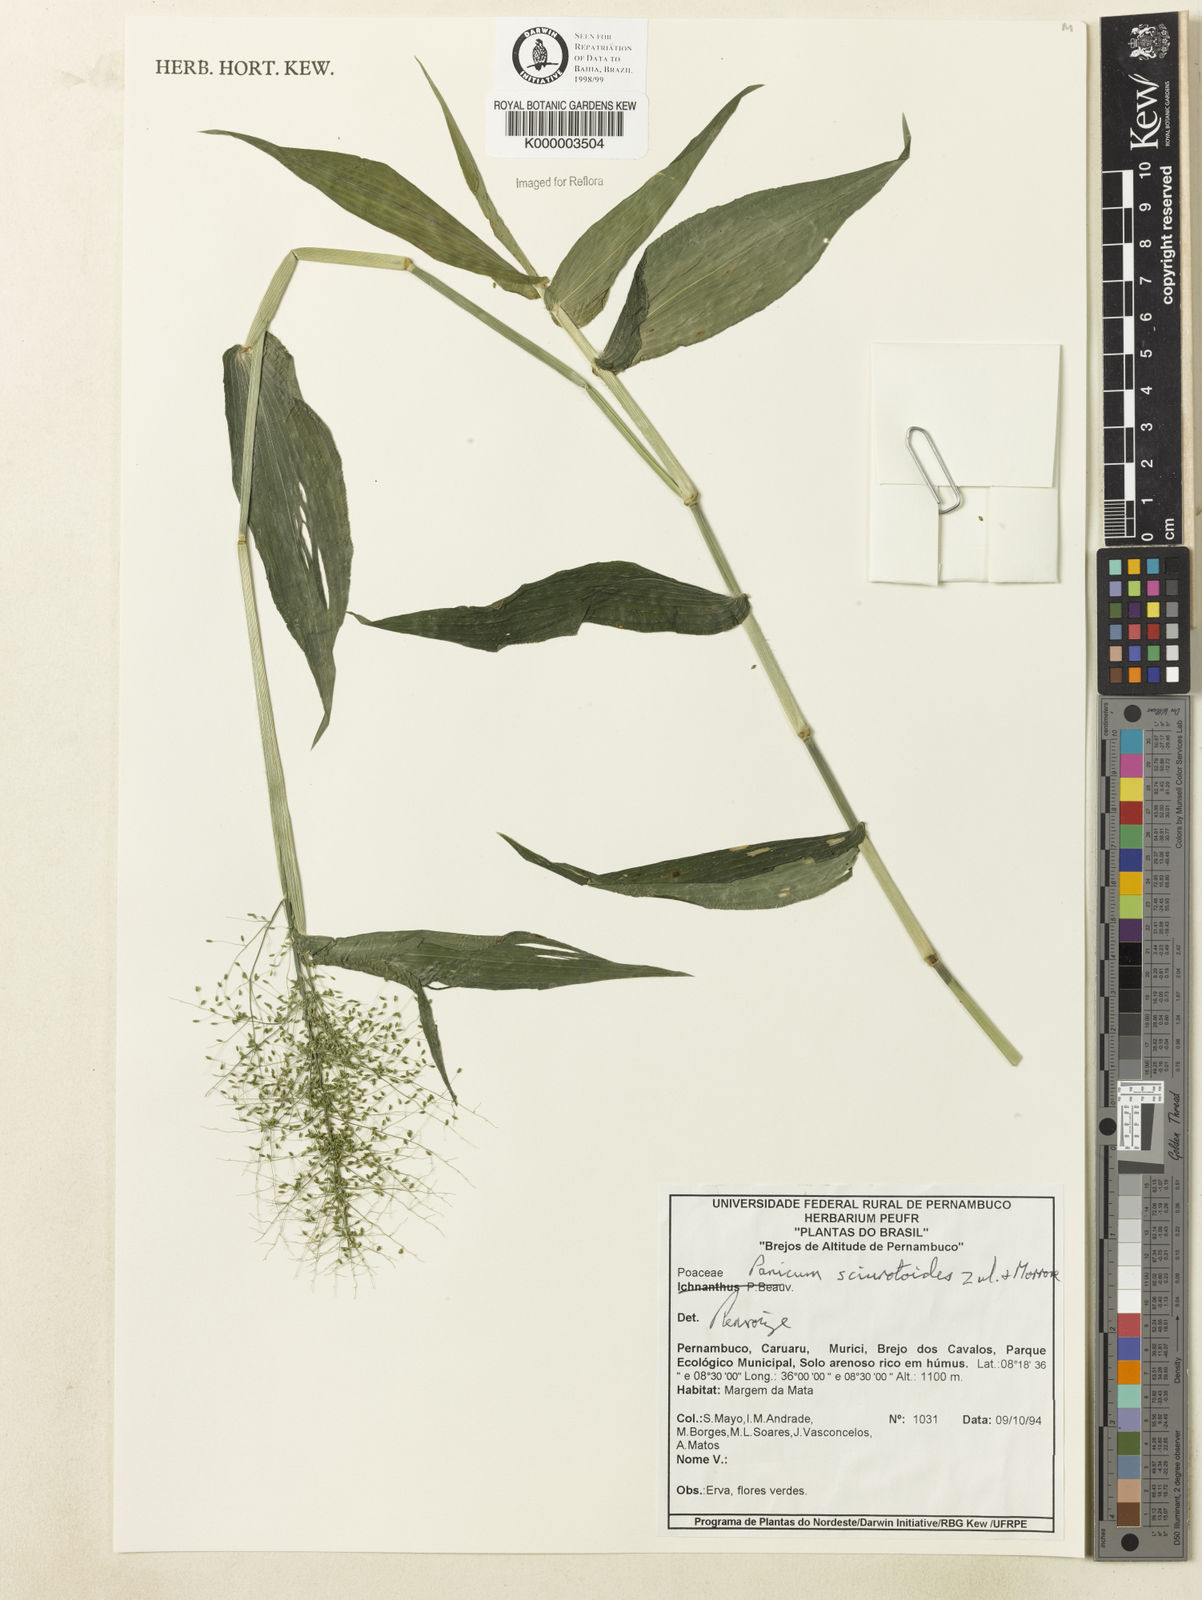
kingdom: Plantae
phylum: Tracheophyta
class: Liliopsida
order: Poales
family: Poaceae
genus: Dichanthelium
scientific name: Dichanthelium sciurotoides
